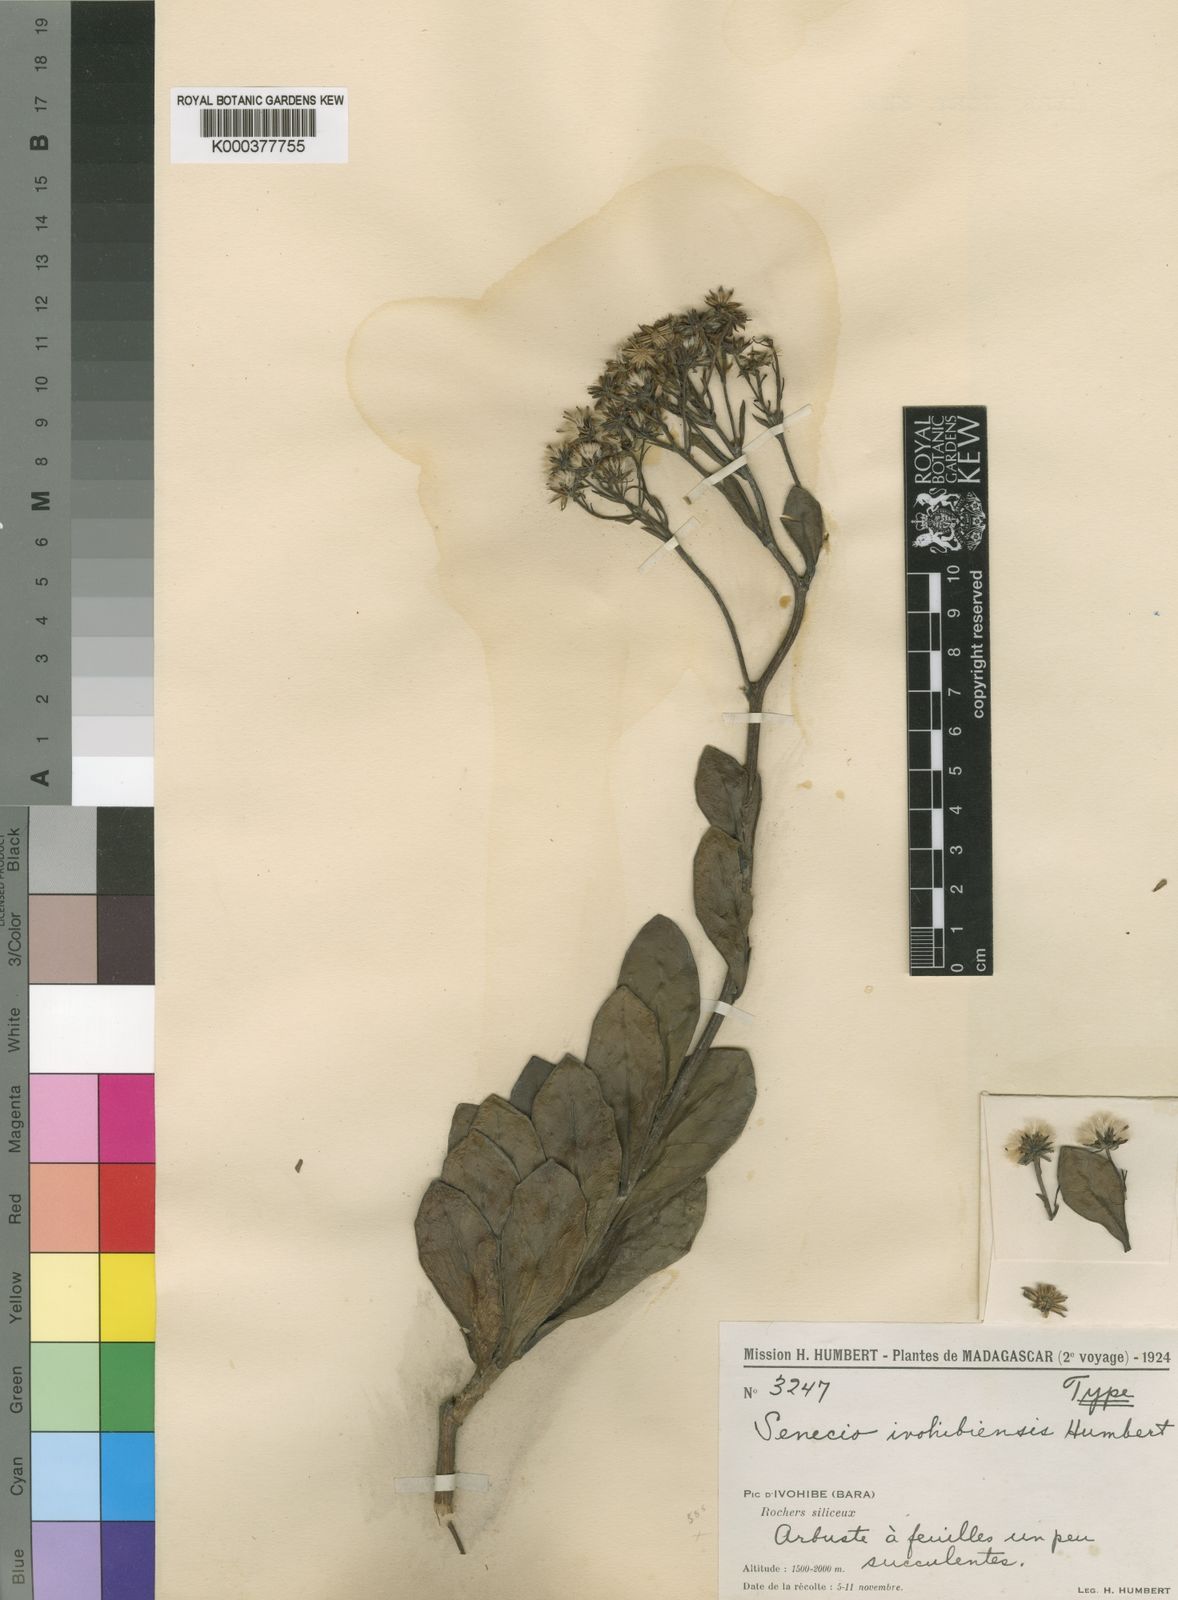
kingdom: Plantae
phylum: Tracheophyta
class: Magnoliopsida
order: Asterales
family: Asteraceae
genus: Hubertia
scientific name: Hubertia ivohibeensis
